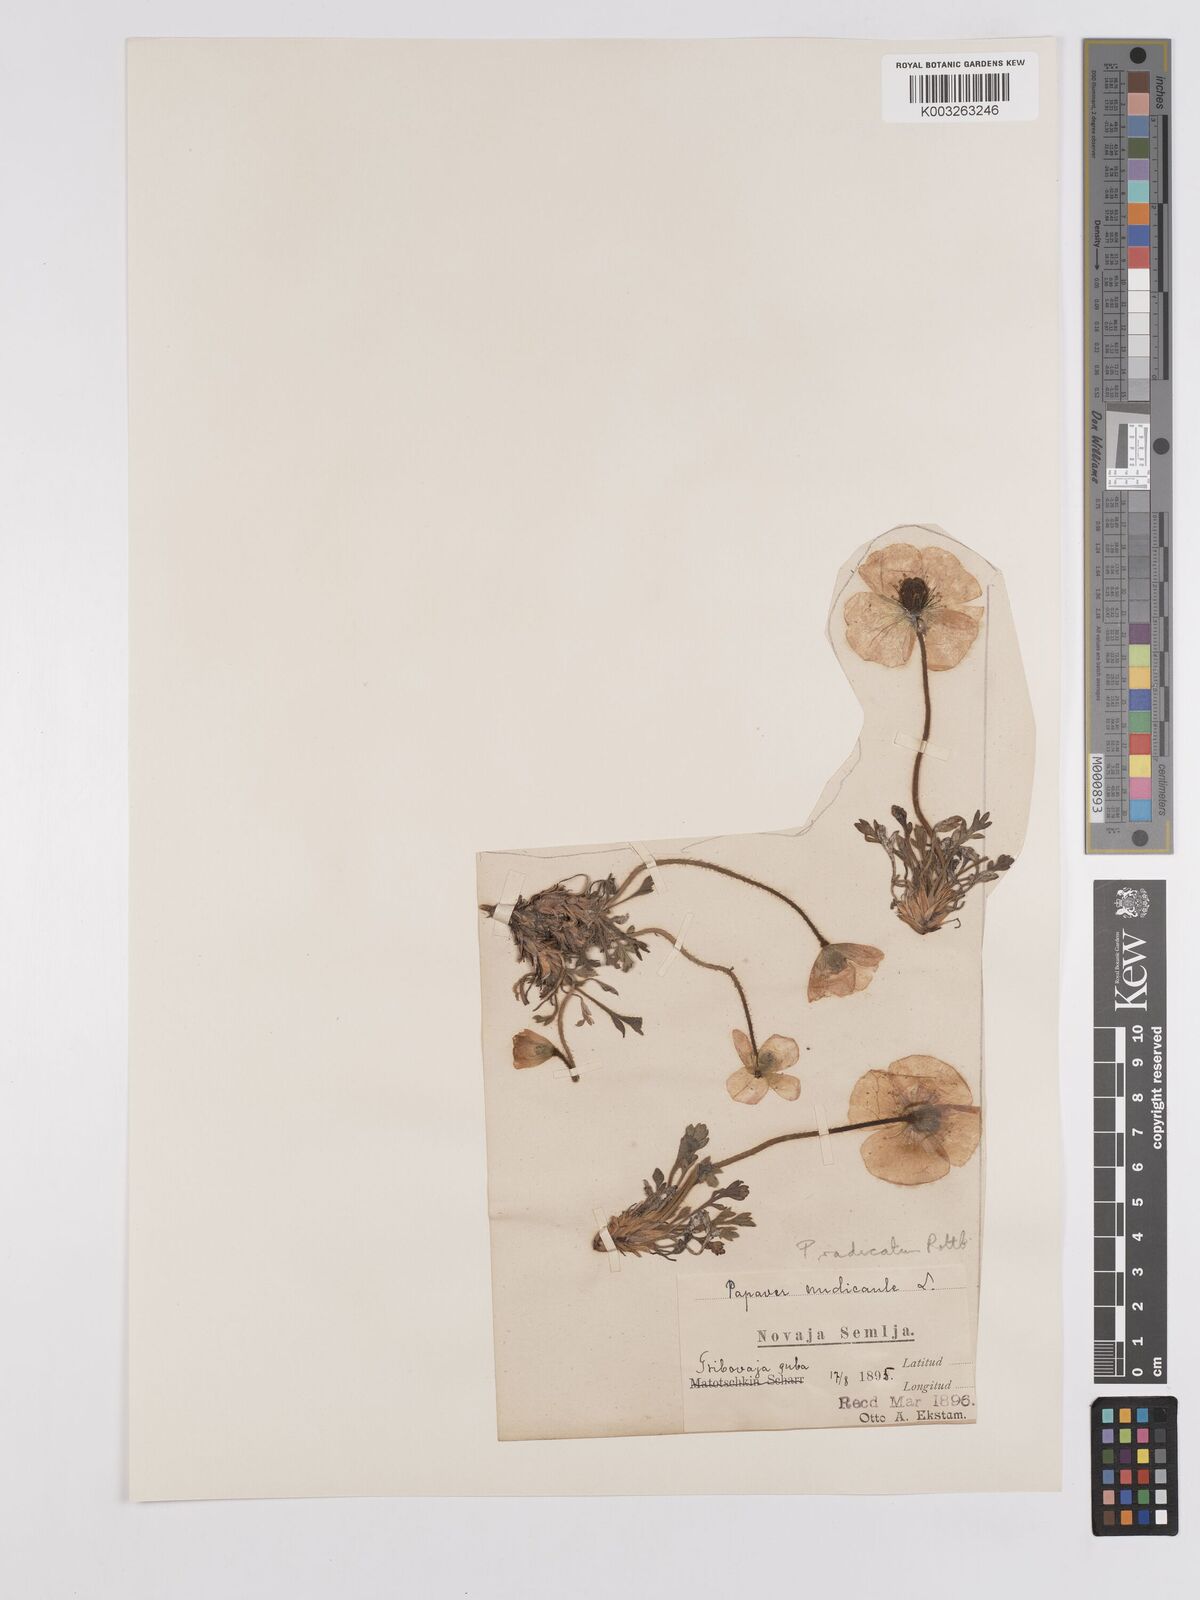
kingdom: Plantae
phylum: Tracheophyta
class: Magnoliopsida
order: Ranunculales
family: Papaveraceae
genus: Papaver
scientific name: Papaver radicatum
